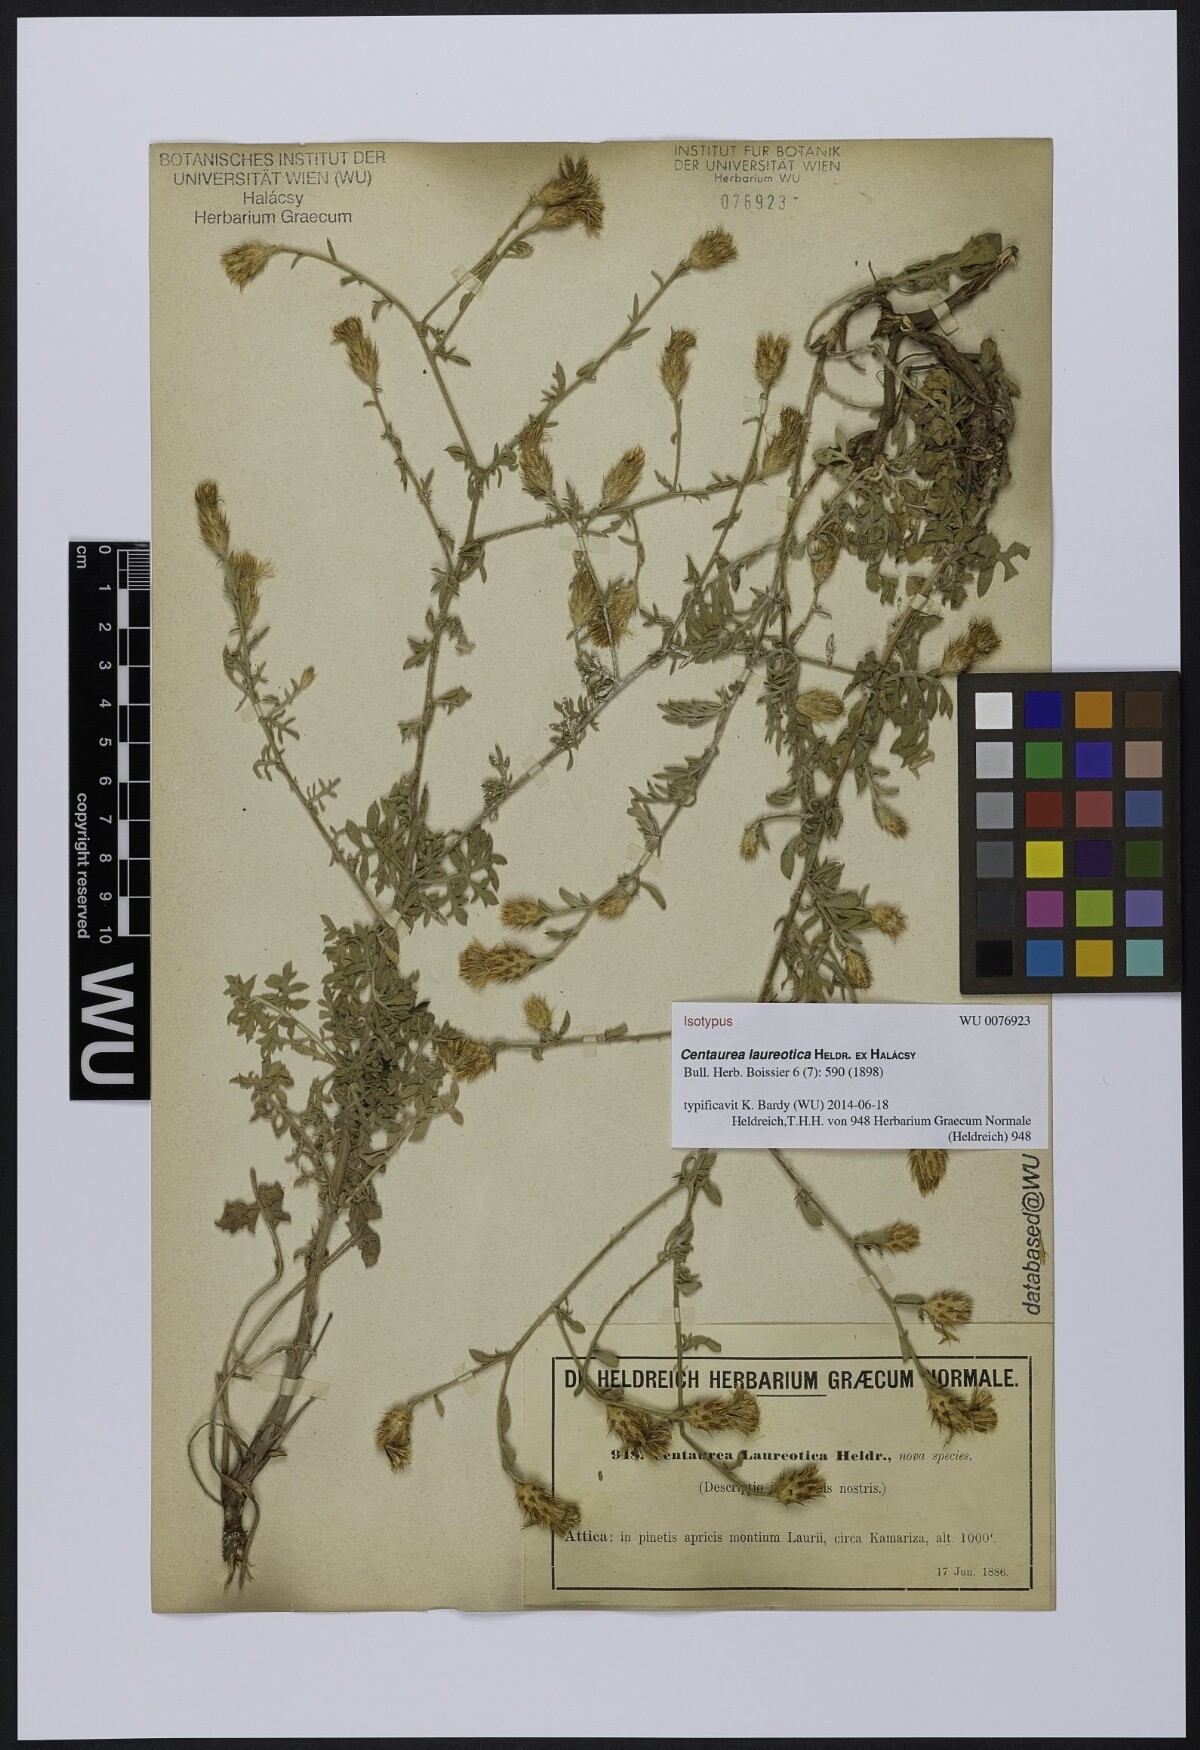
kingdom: Plantae
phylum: Tracheophyta
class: Magnoliopsida
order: Asterales
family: Asteraceae
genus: Centaurea
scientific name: Centaurea laureotica
